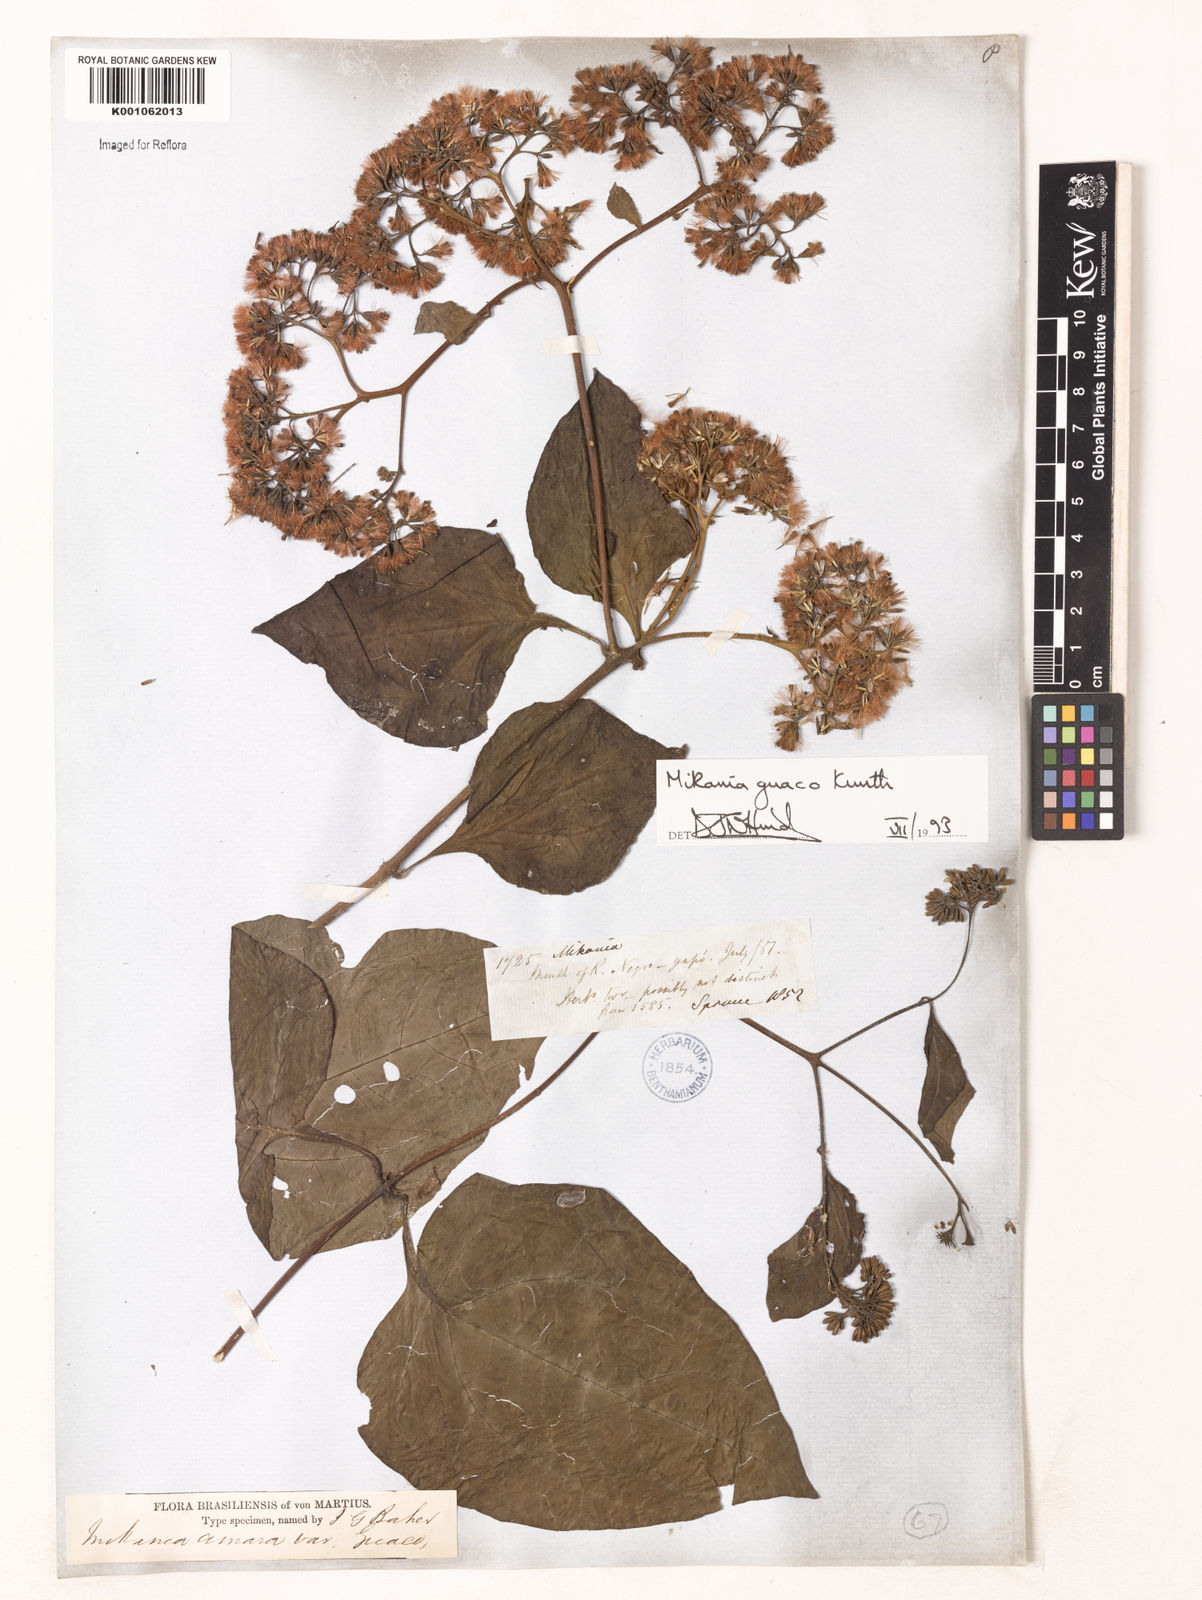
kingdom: Plantae
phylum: Tracheophyta
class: Magnoliopsida
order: Asterales
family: Asteraceae
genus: Mikania
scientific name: Mikania guaco
